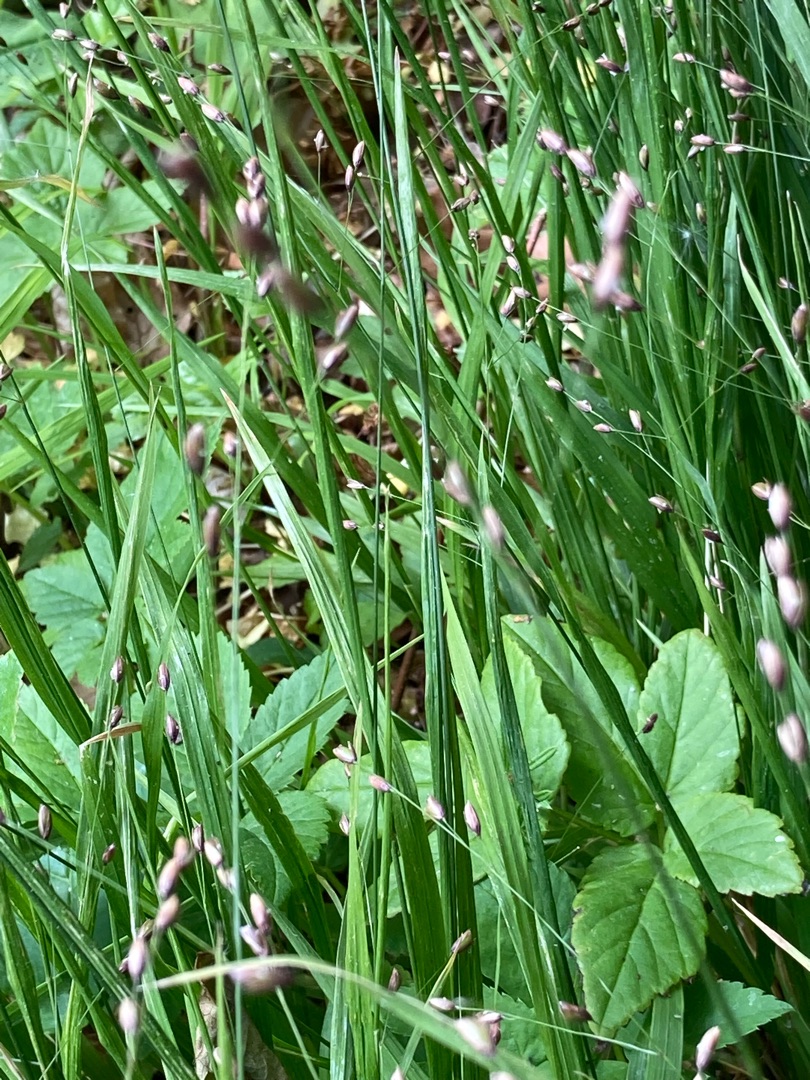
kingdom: Plantae
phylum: Tracheophyta
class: Liliopsida
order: Poales
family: Poaceae
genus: Melica
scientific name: Melica uniflora
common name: Enblomstret flitteraks
